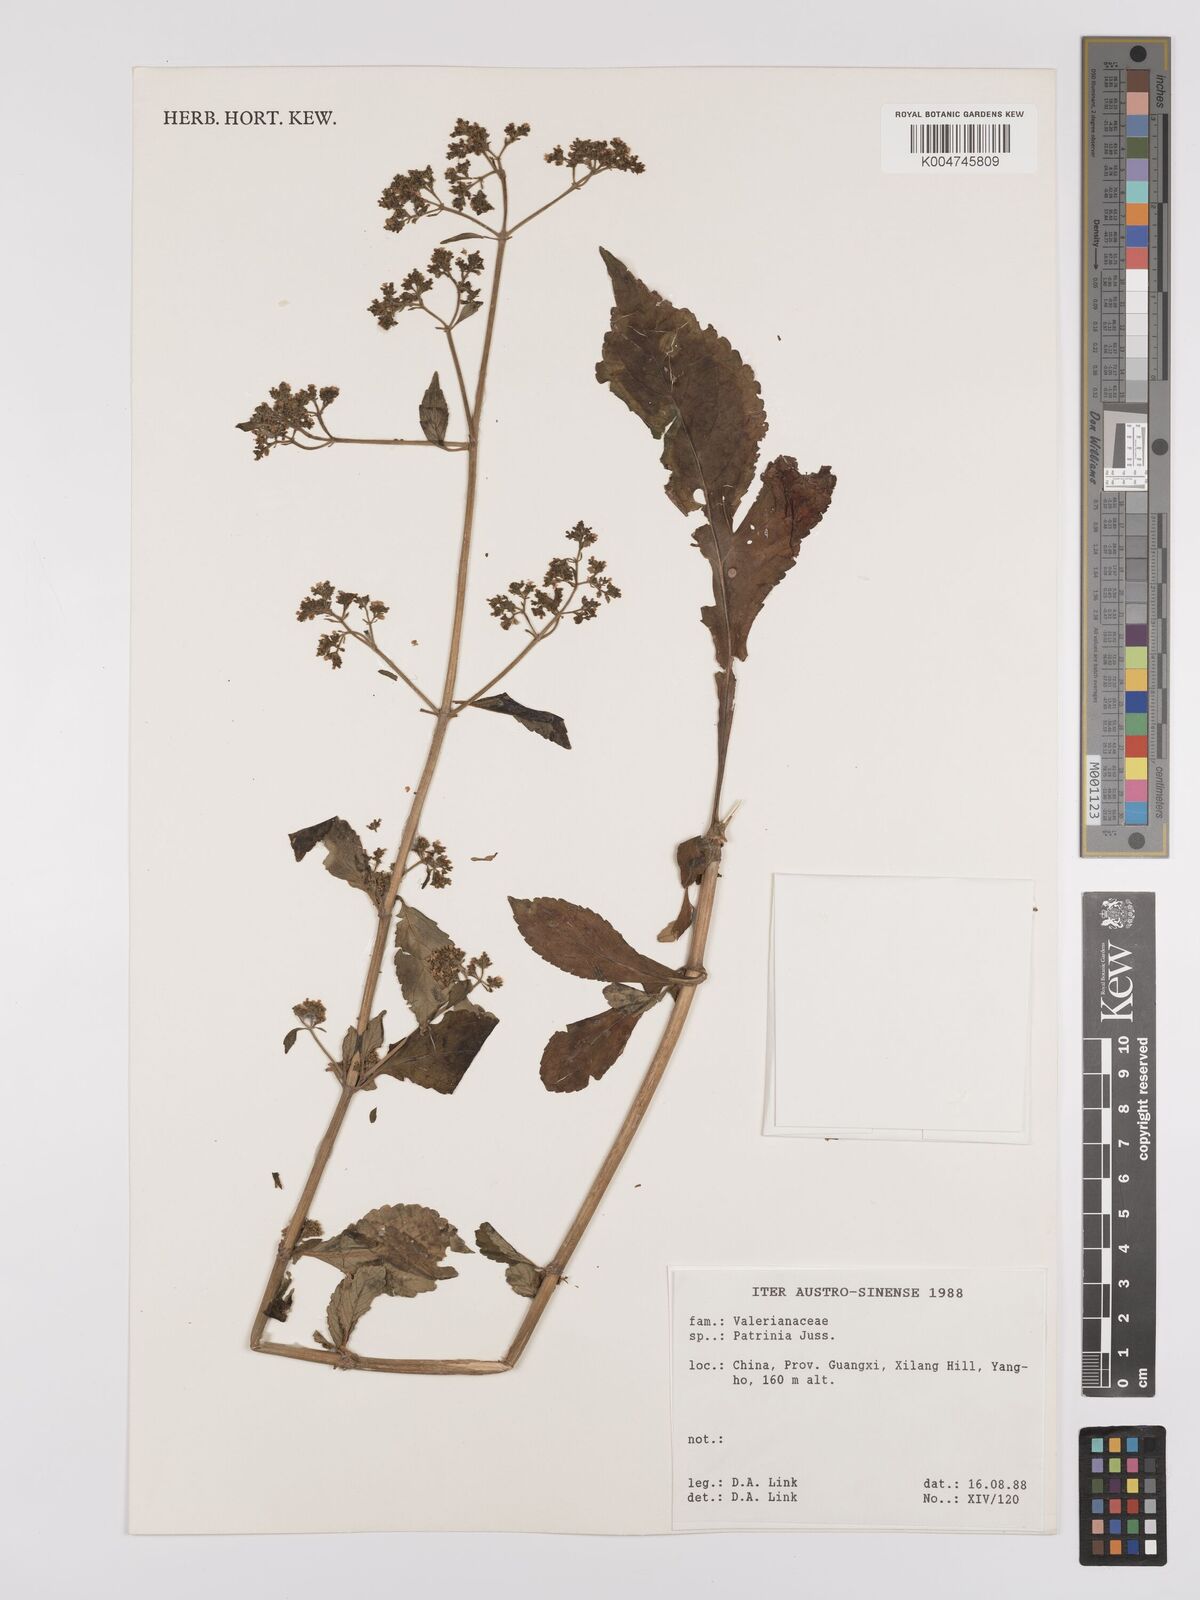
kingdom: Plantae
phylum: Tracheophyta
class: Magnoliopsida
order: Dipsacales
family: Caprifoliaceae
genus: Patrinia
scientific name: Patrinia
